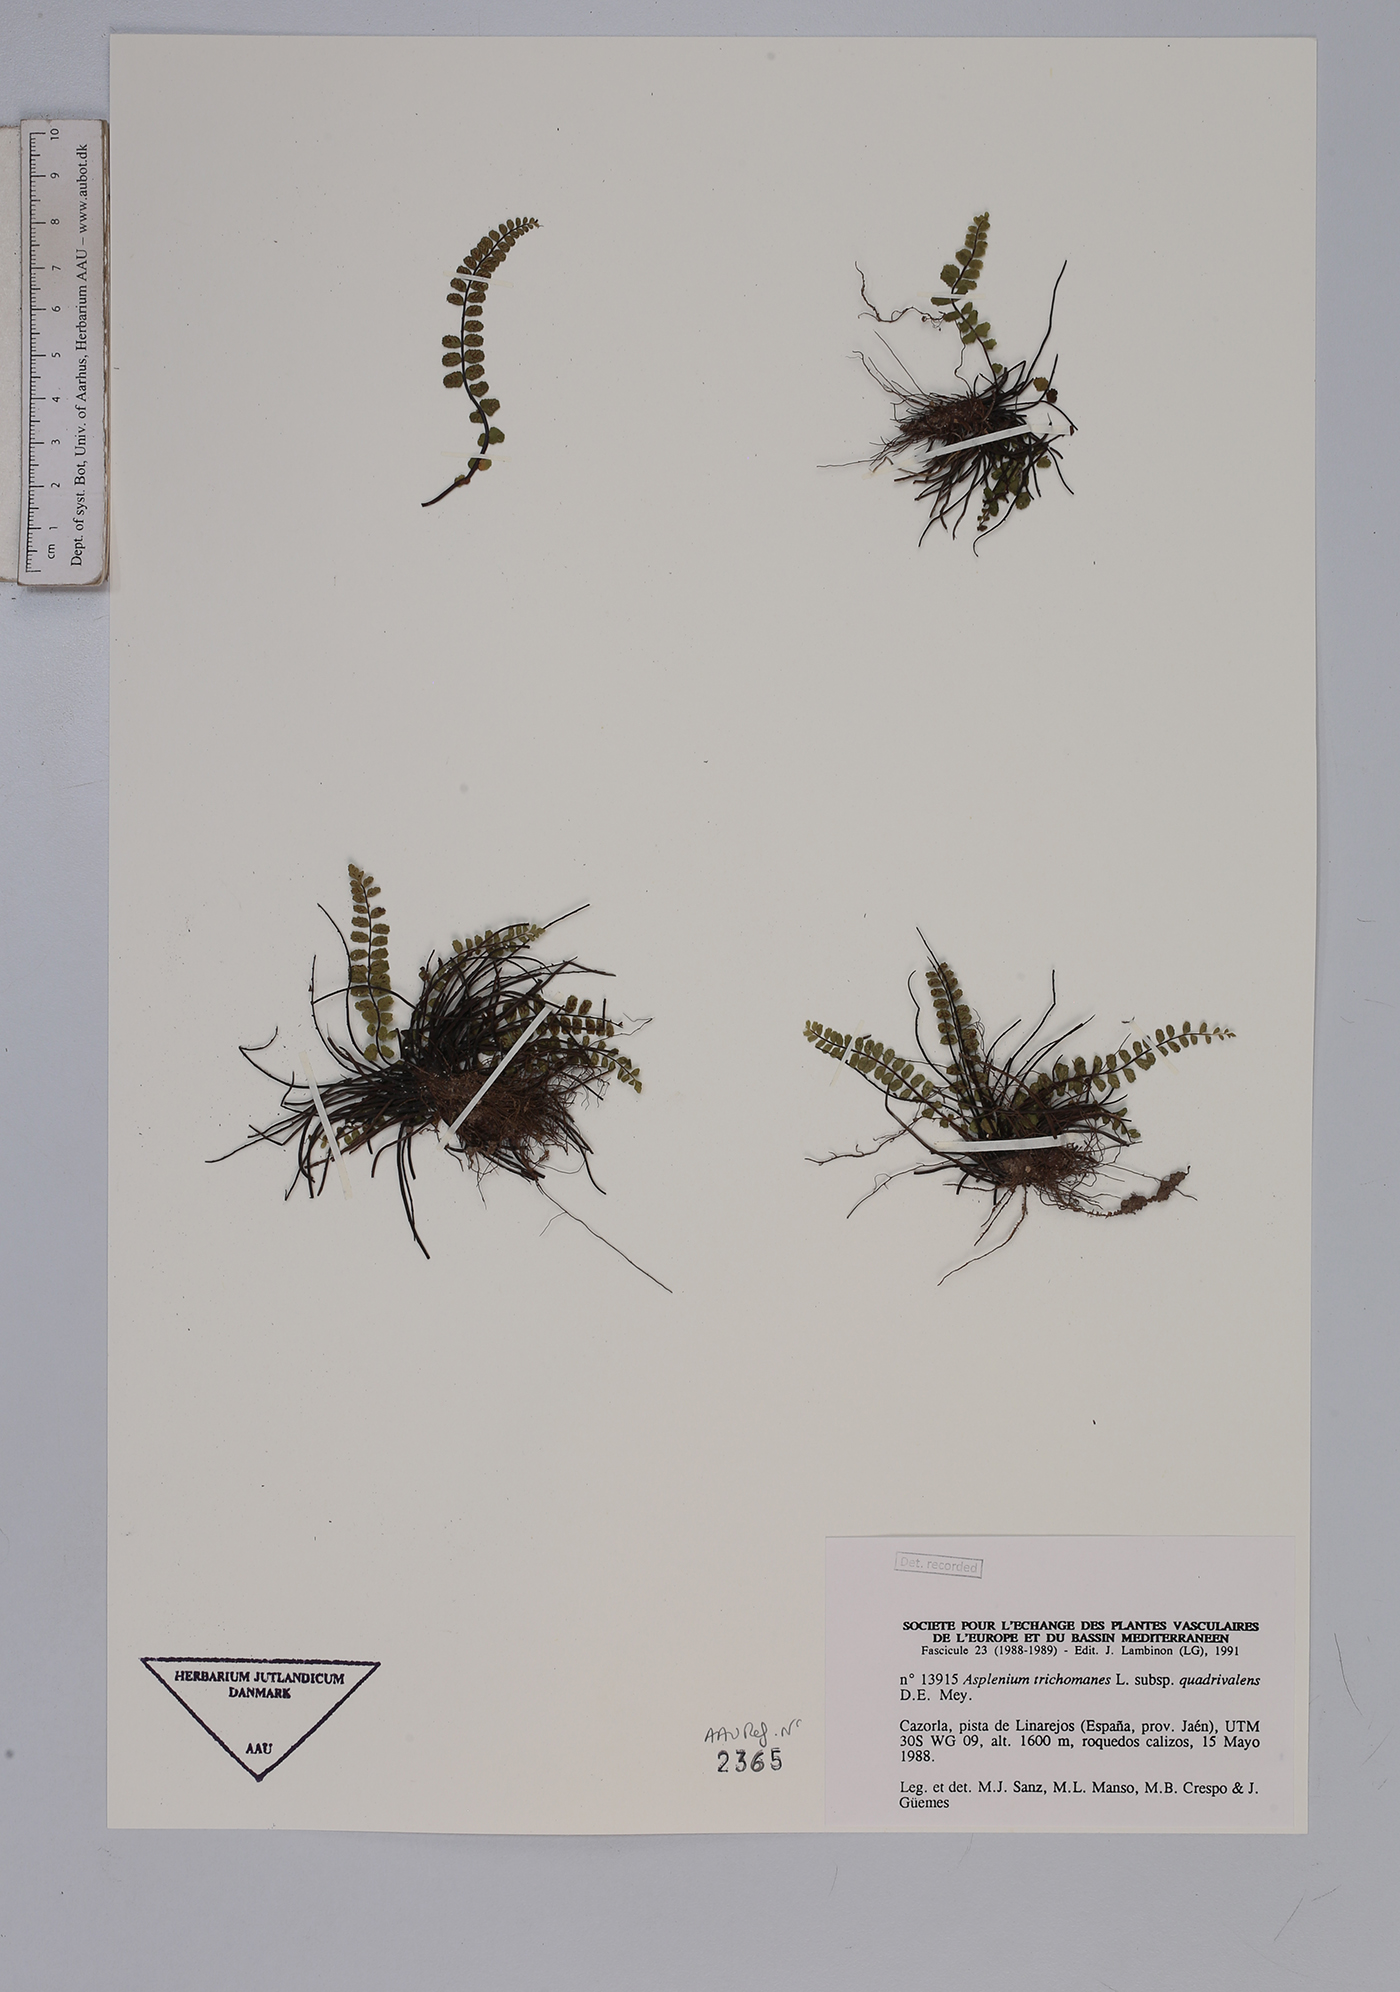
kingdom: Plantae
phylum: Tracheophyta
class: Polypodiopsida
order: Polypodiales
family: Aspleniaceae
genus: Asplenium
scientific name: Asplenium trichomanes
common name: Maidenhair spleenwort
